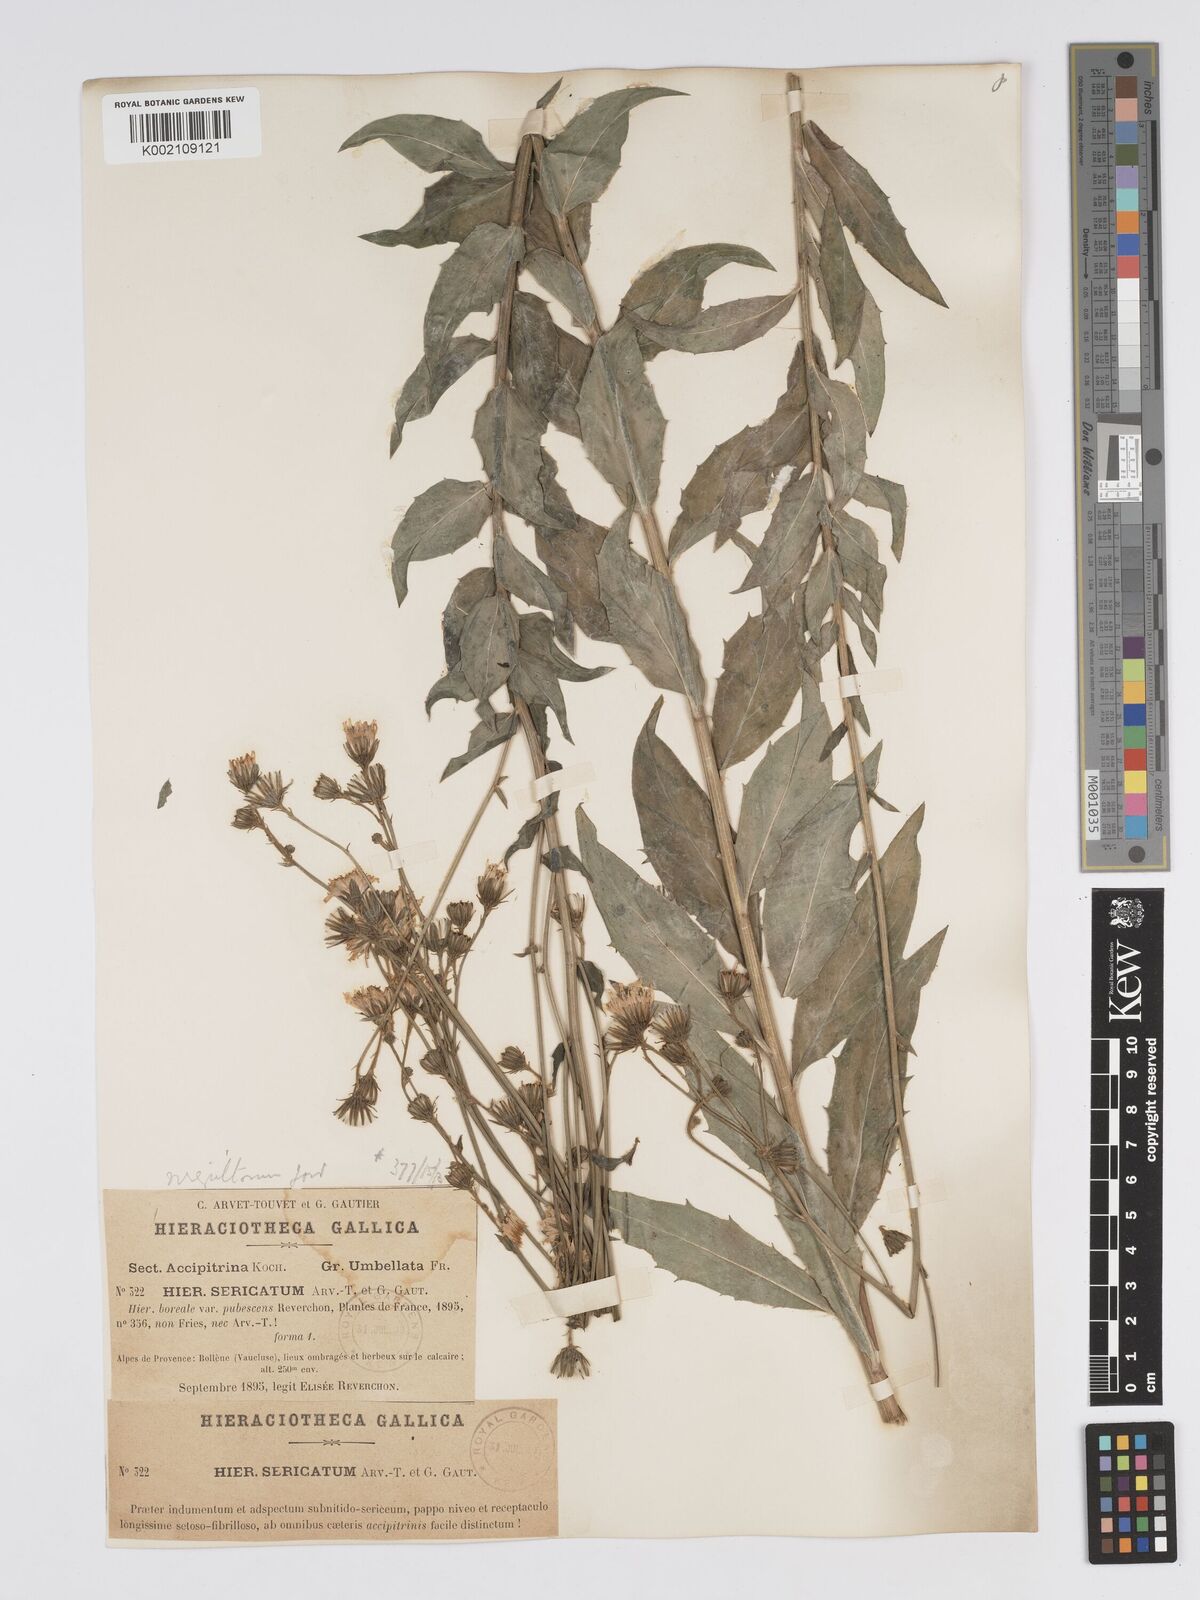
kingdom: Plantae
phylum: Tracheophyta
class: Magnoliopsida
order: Asterales
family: Asteraceae
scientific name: Asteraceae
